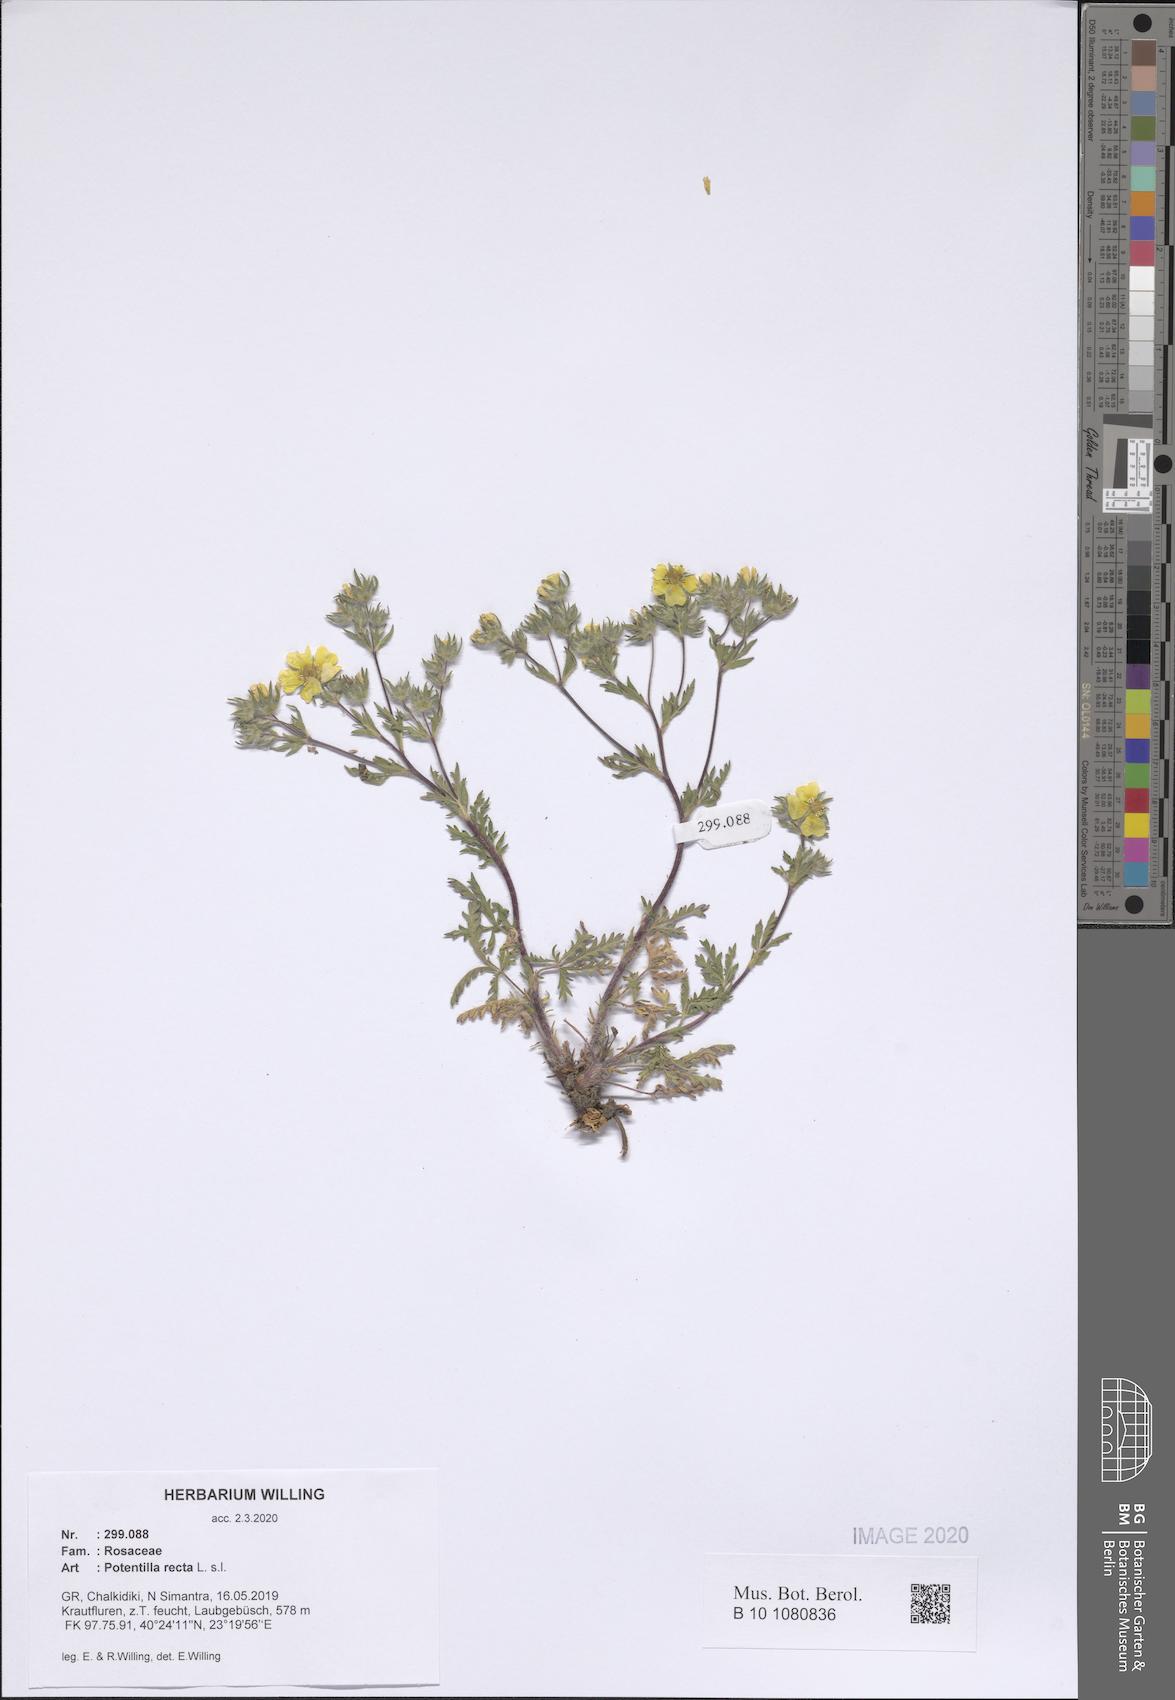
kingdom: Plantae
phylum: Tracheophyta
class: Magnoliopsida
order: Rosales
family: Rosaceae
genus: Potentilla
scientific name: Potentilla recta
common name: Sulphur cinquefoil
